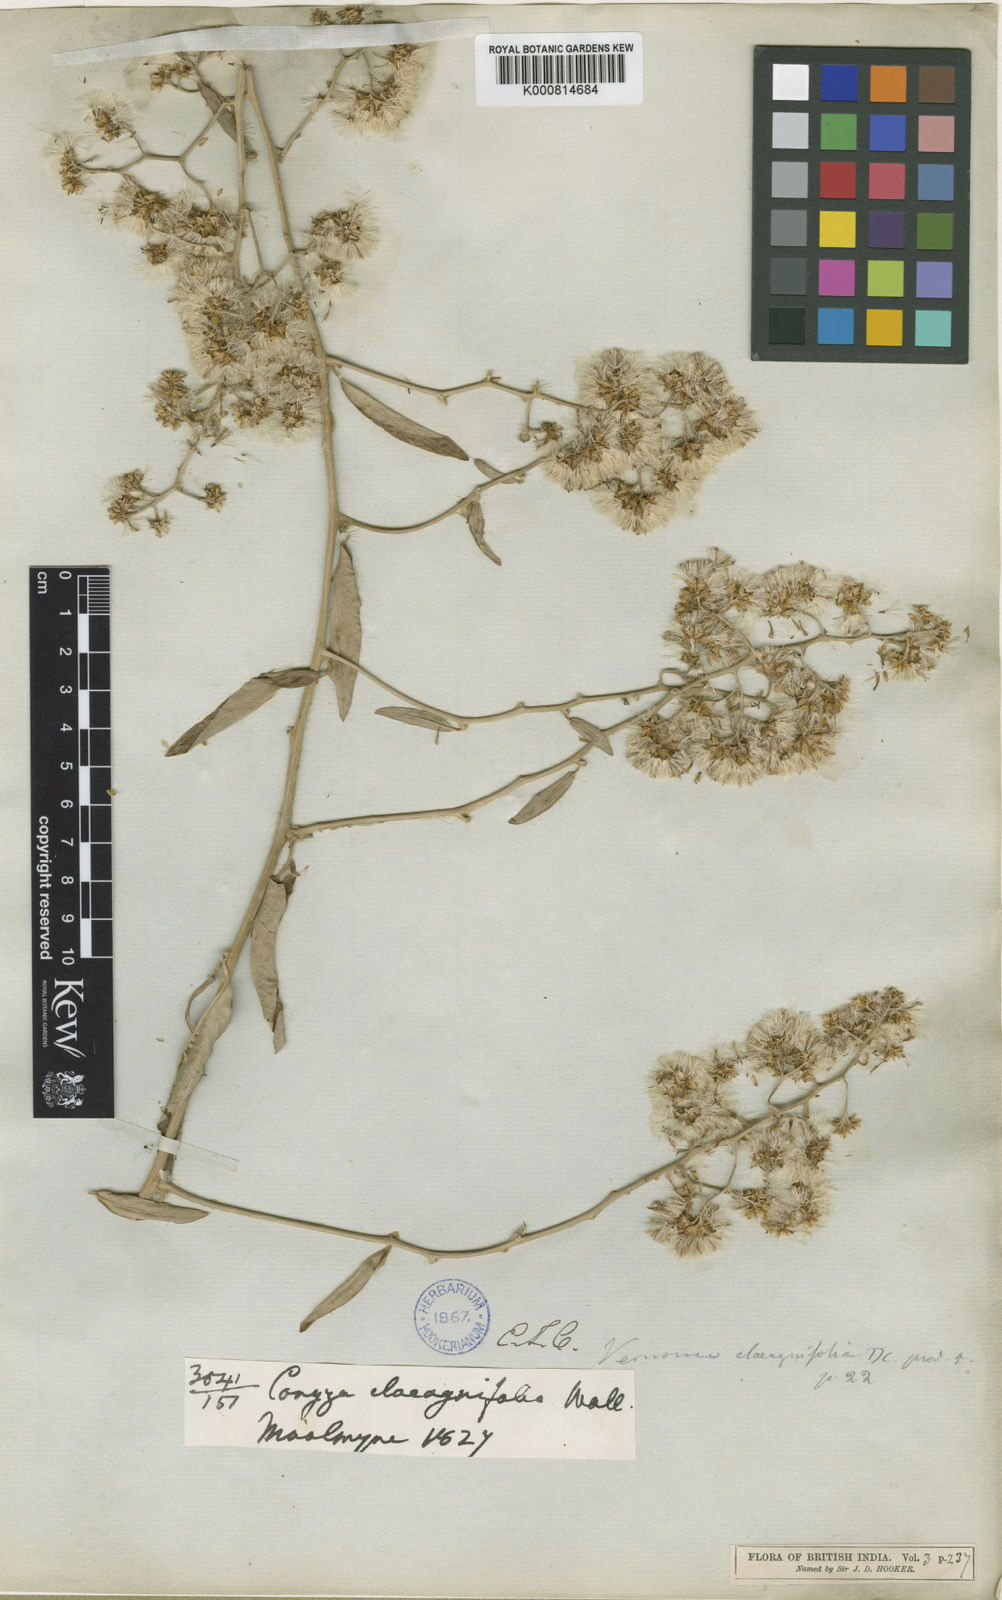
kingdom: Plantae
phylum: Tracheophyta
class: Magnoliopsida
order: Asterales
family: Asteraceae
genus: Tarlmounia
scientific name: Tarlmounia elliptica
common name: Kheua sa lot
